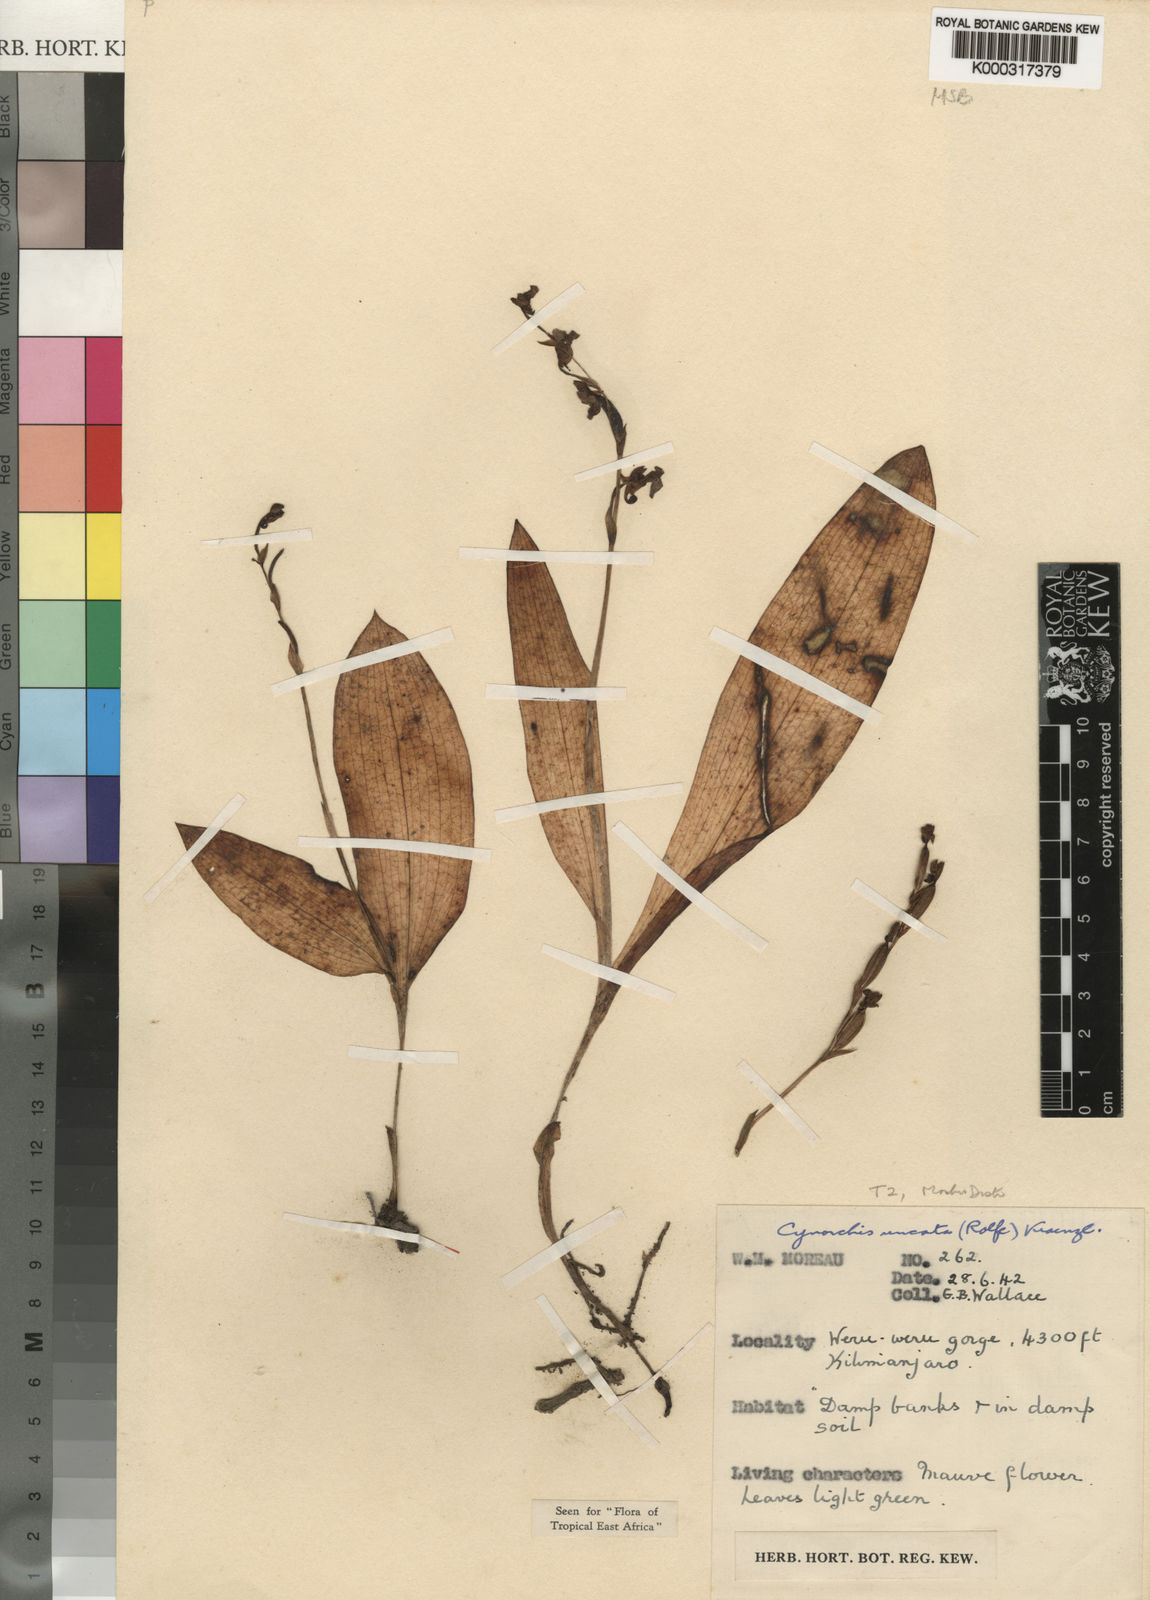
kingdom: Plantae
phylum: Tracheophyta
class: Liliopsida
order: Asparagales
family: Orchidaceae
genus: Cynorkis
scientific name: Cynorkis uncata
